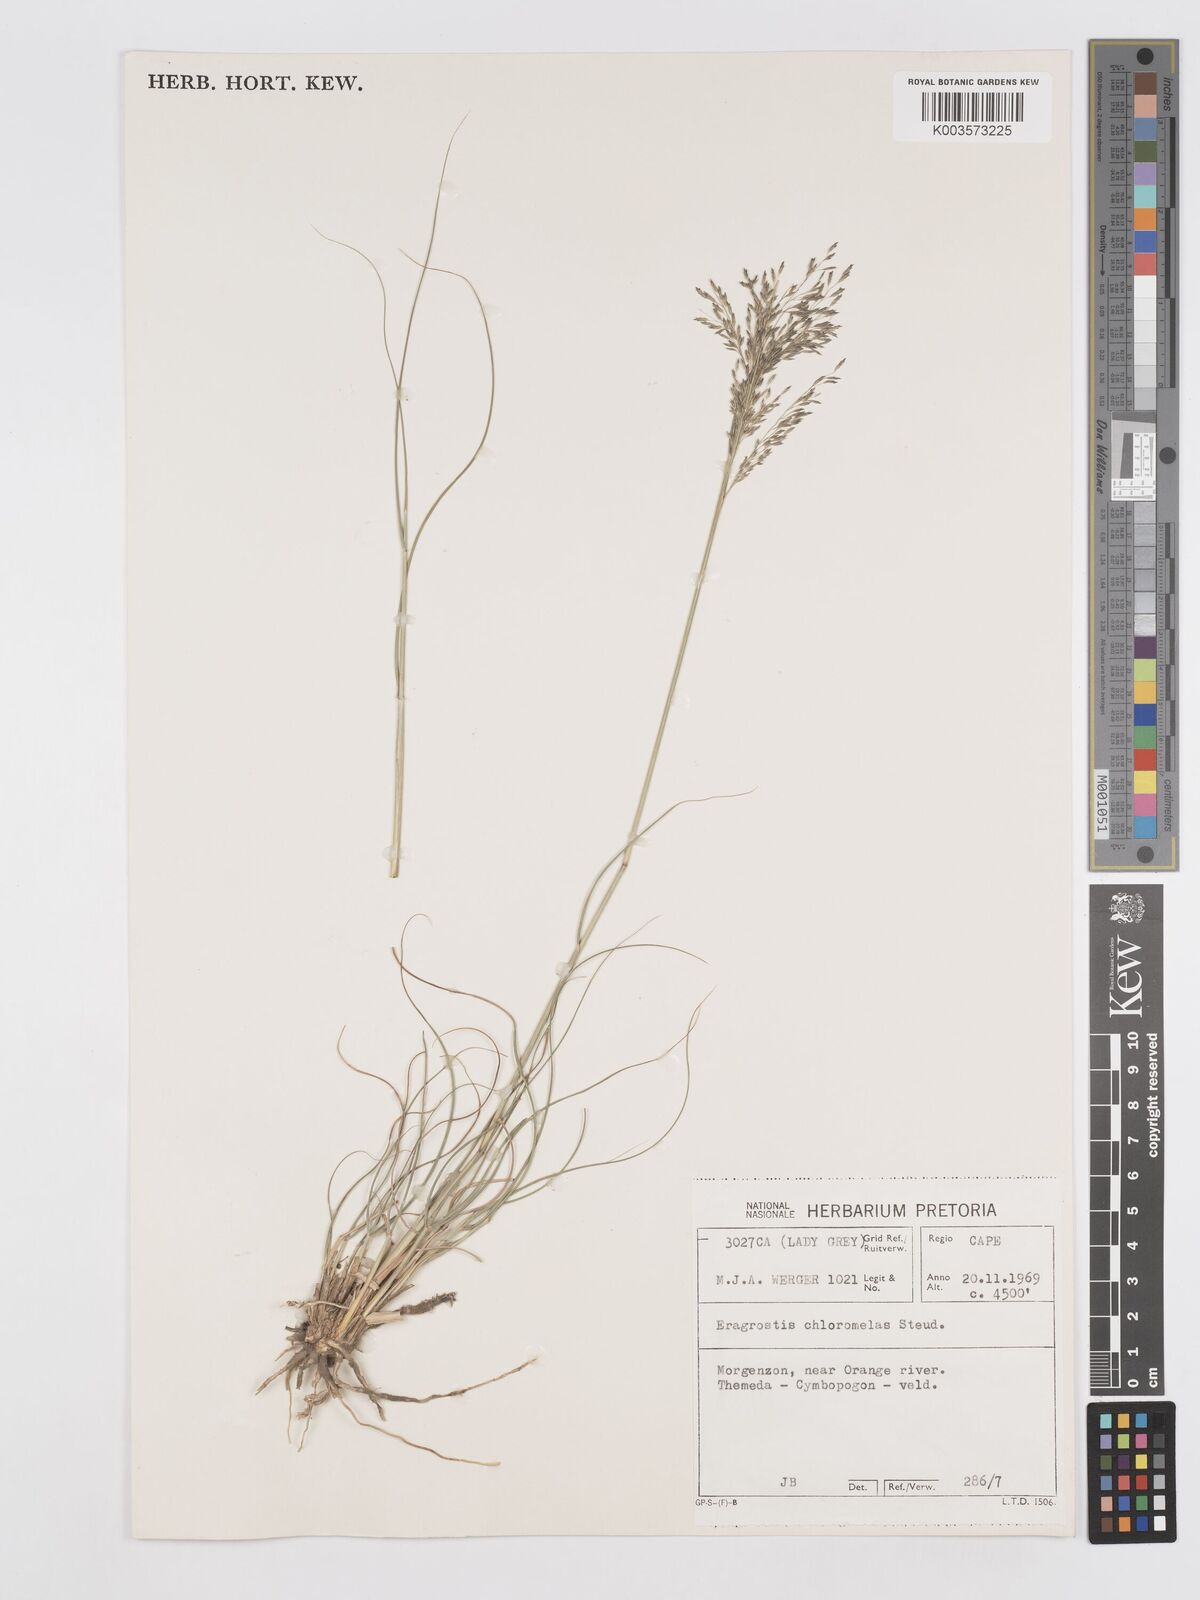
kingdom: Plantae
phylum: Tracheophyta
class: Liliopsida
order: Poales
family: Poaceae
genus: Eragrostis
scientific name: Eragrostis curvula
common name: African love-grass
